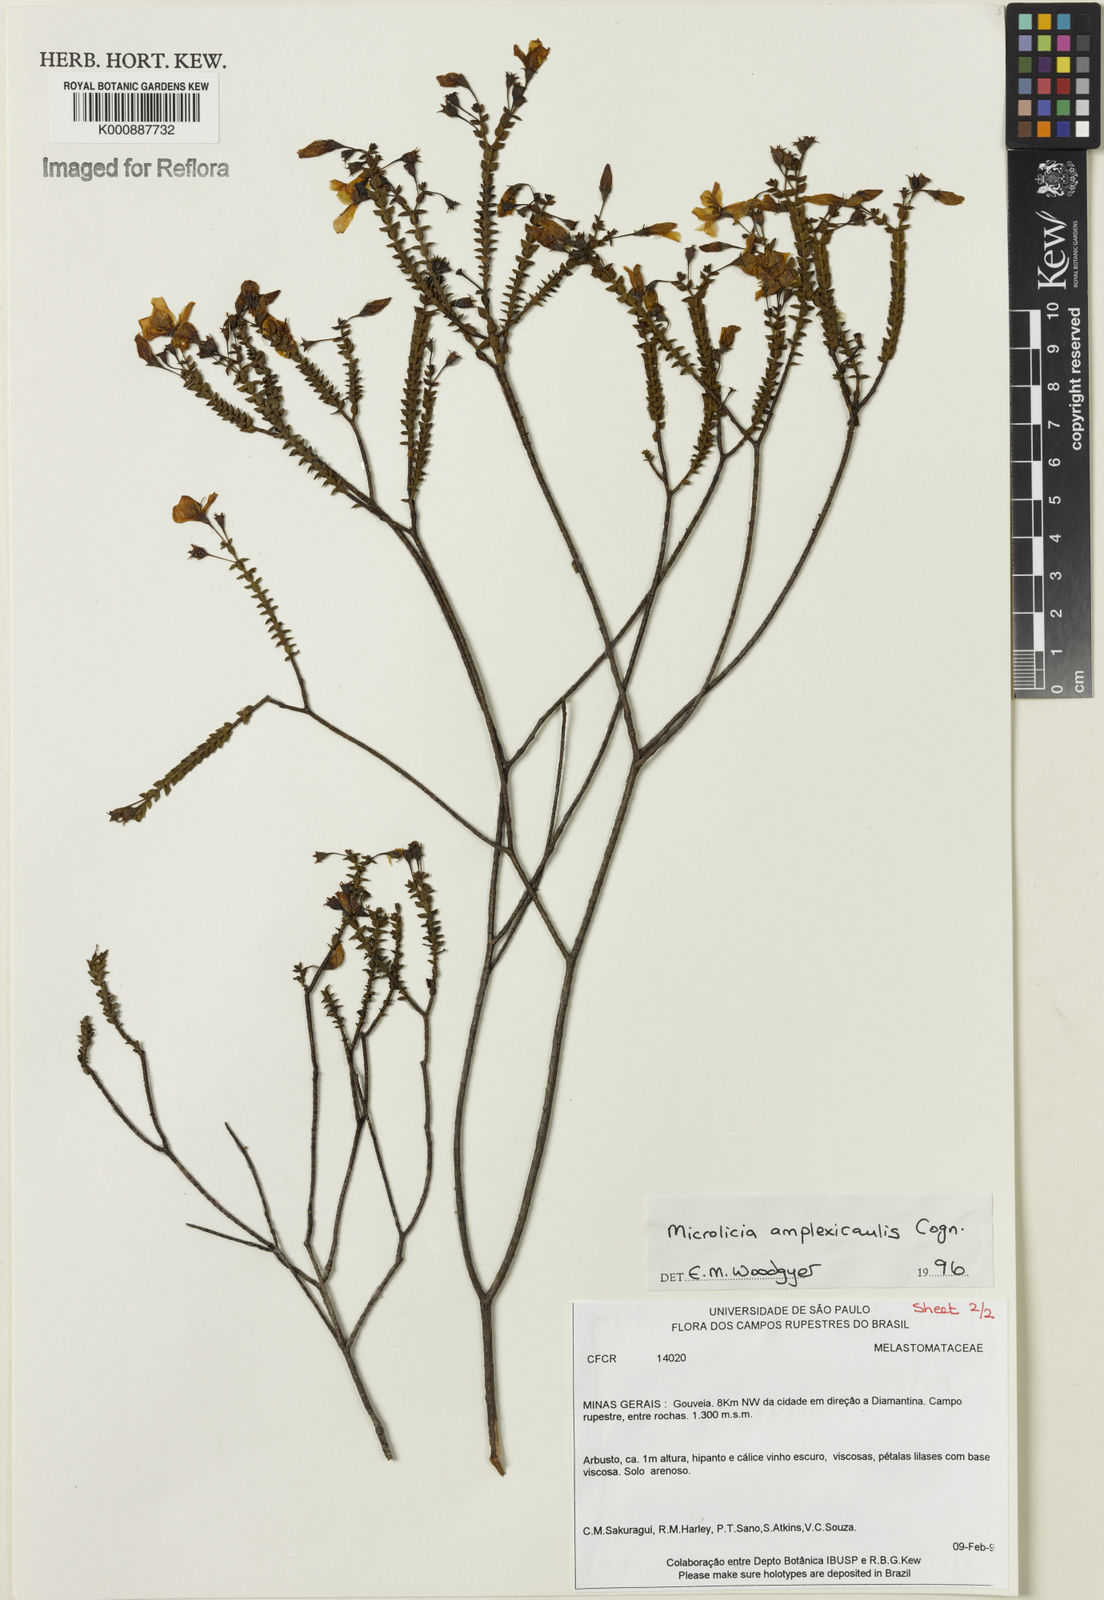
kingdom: Plantae
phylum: Tracheophyta
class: Magnoliopsida
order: Myrtales
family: Melastomataceae
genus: Microlicia
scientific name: Microlicia amplexicaulis
